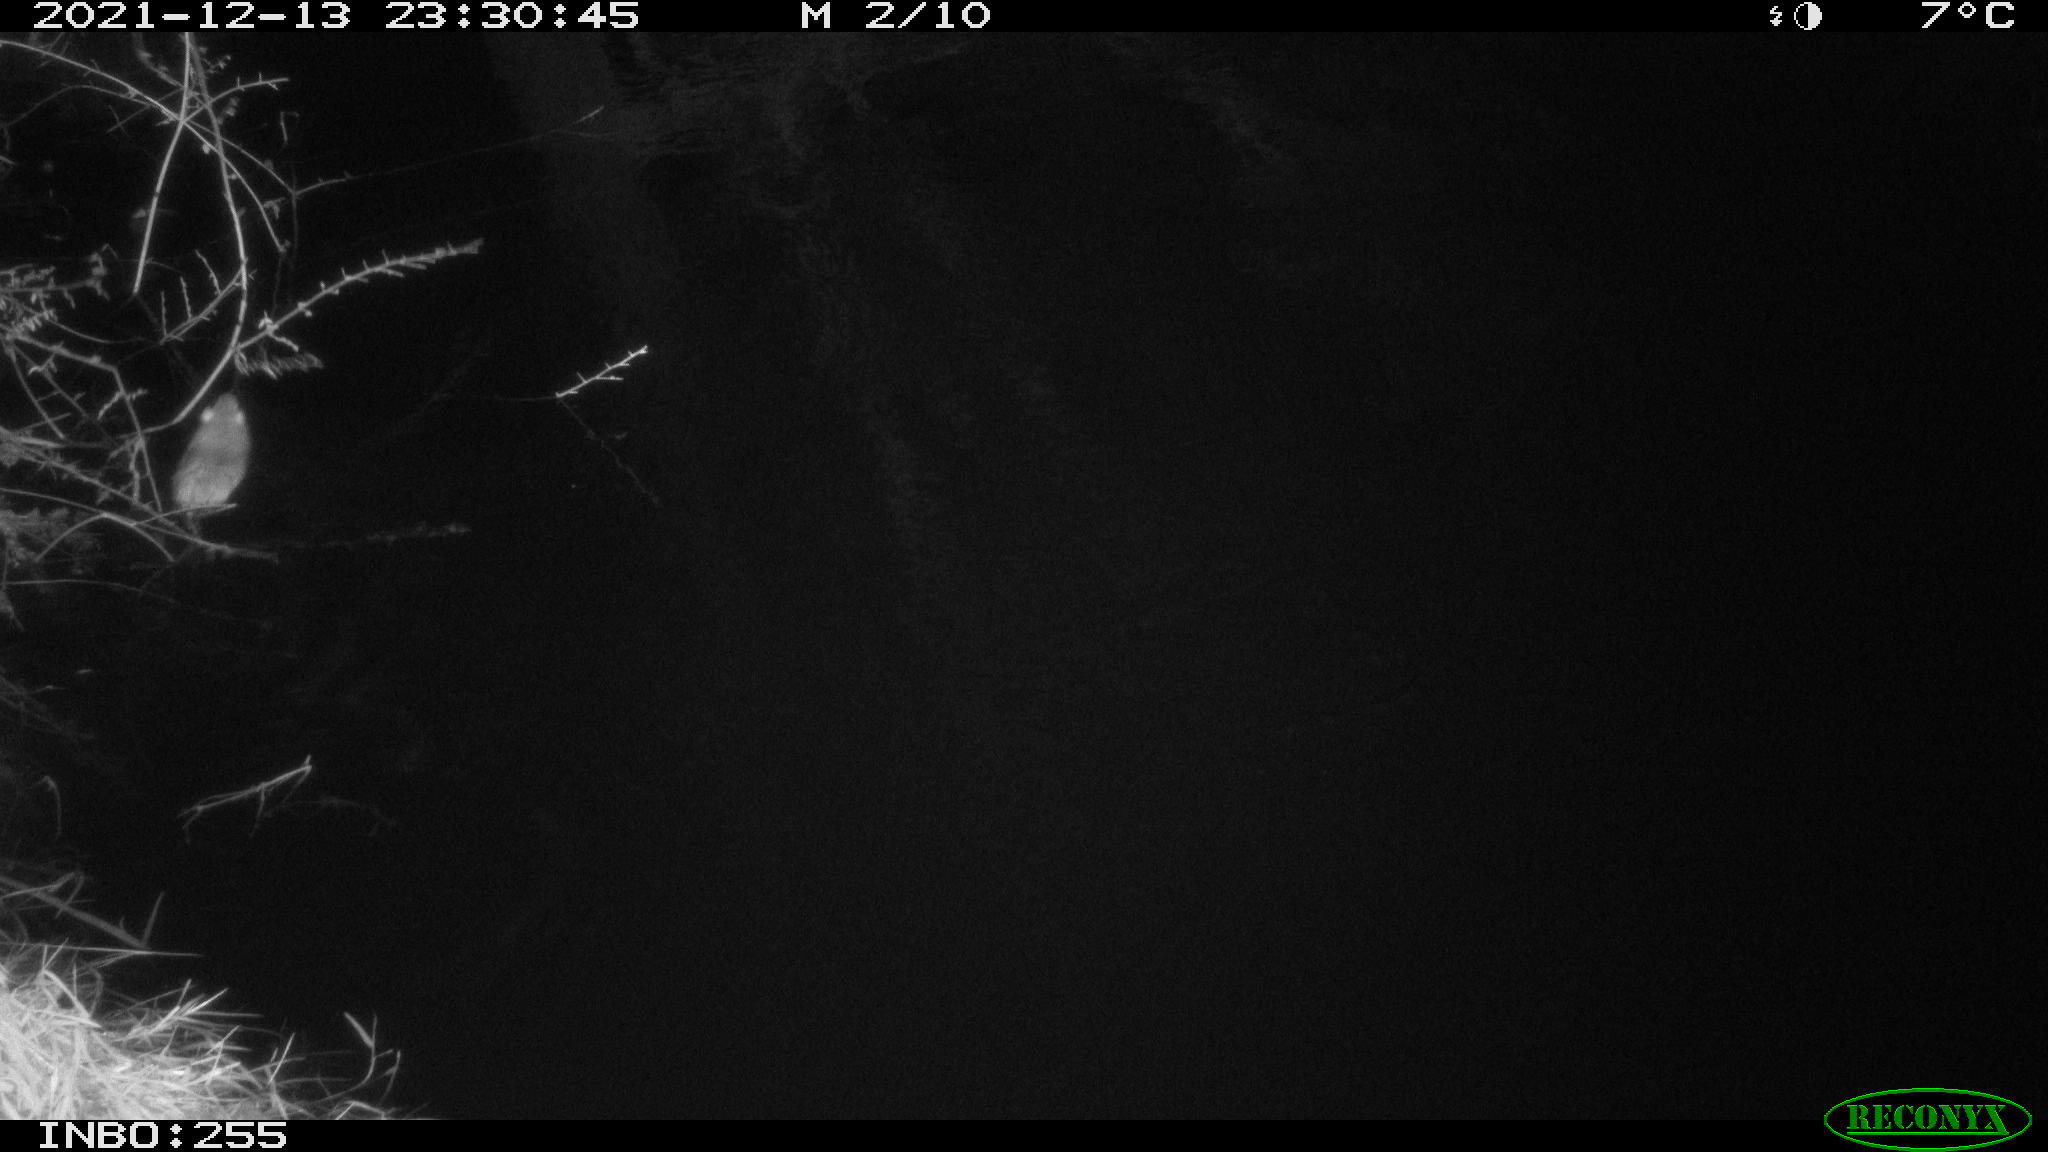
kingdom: Animalia
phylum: Chordata
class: Mammalia
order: Rodentia
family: Muridae
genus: Rattus
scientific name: Rattus norvegicus
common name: Brown rat
